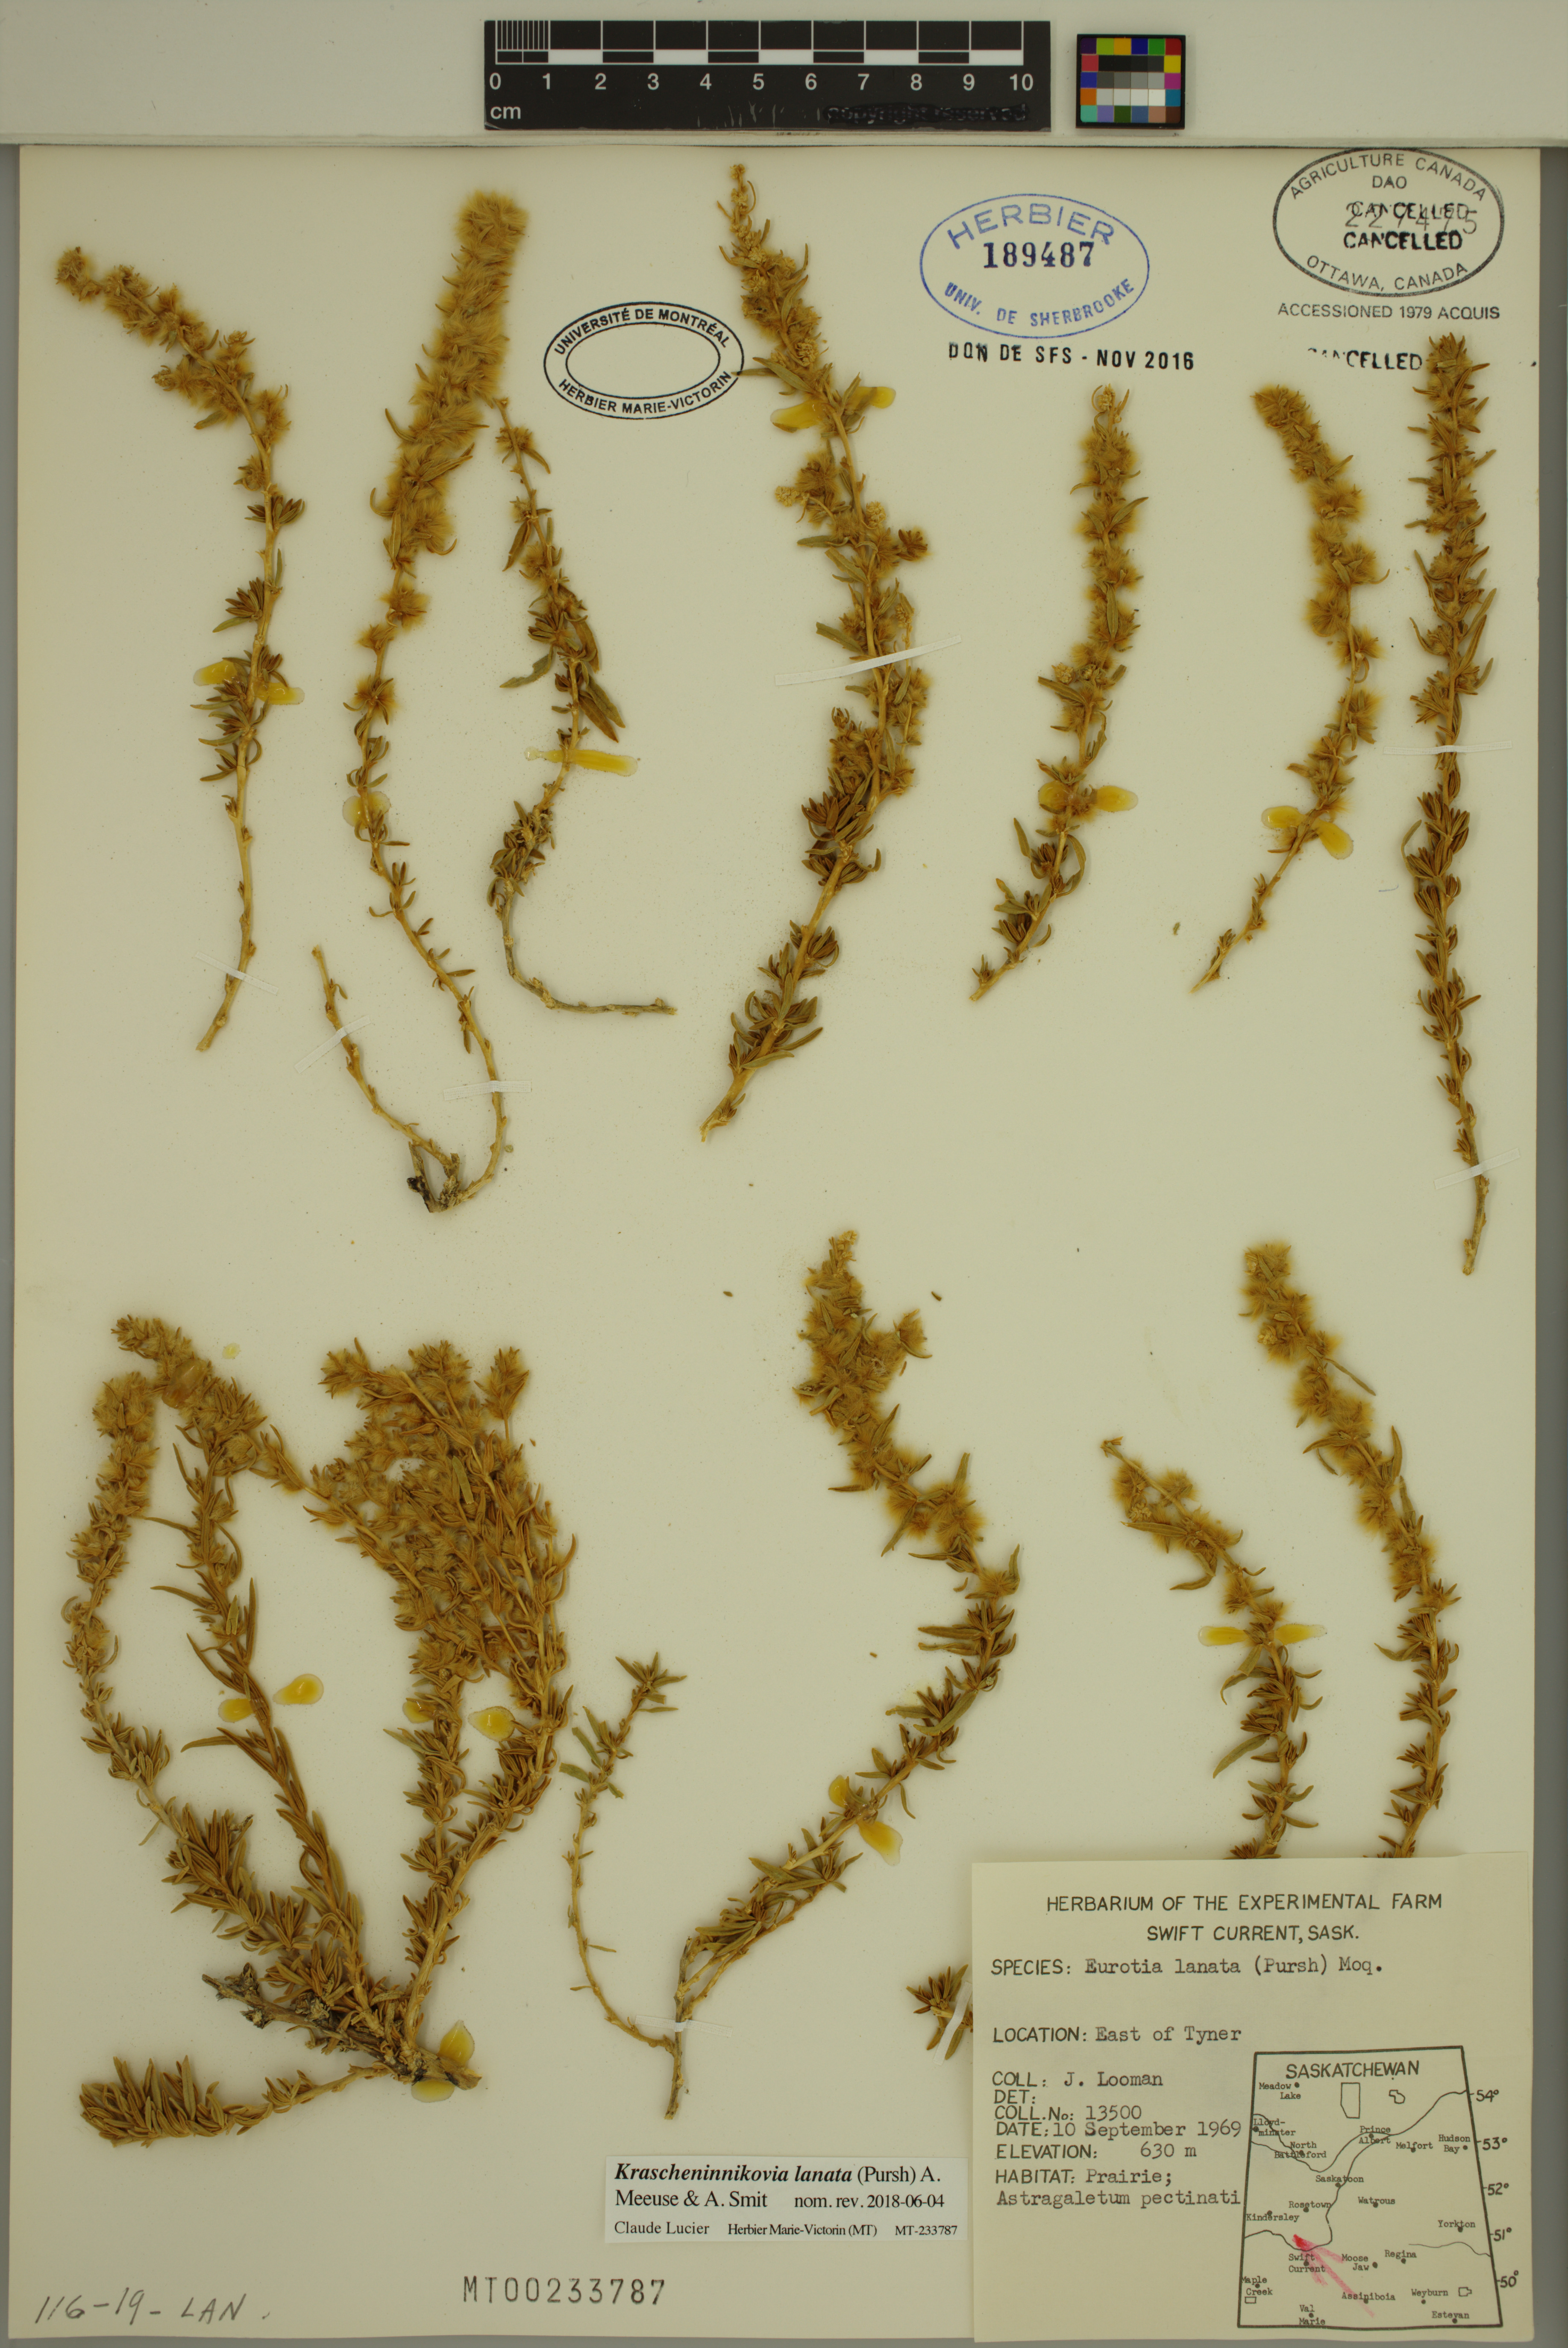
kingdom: Plantae
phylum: Tracheophyta
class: Magnoliopsida
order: Caryophyllales
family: Amaranthaceae
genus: Krascheninnikovia
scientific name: Krascheninnikovia lanata
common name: Winterfat
